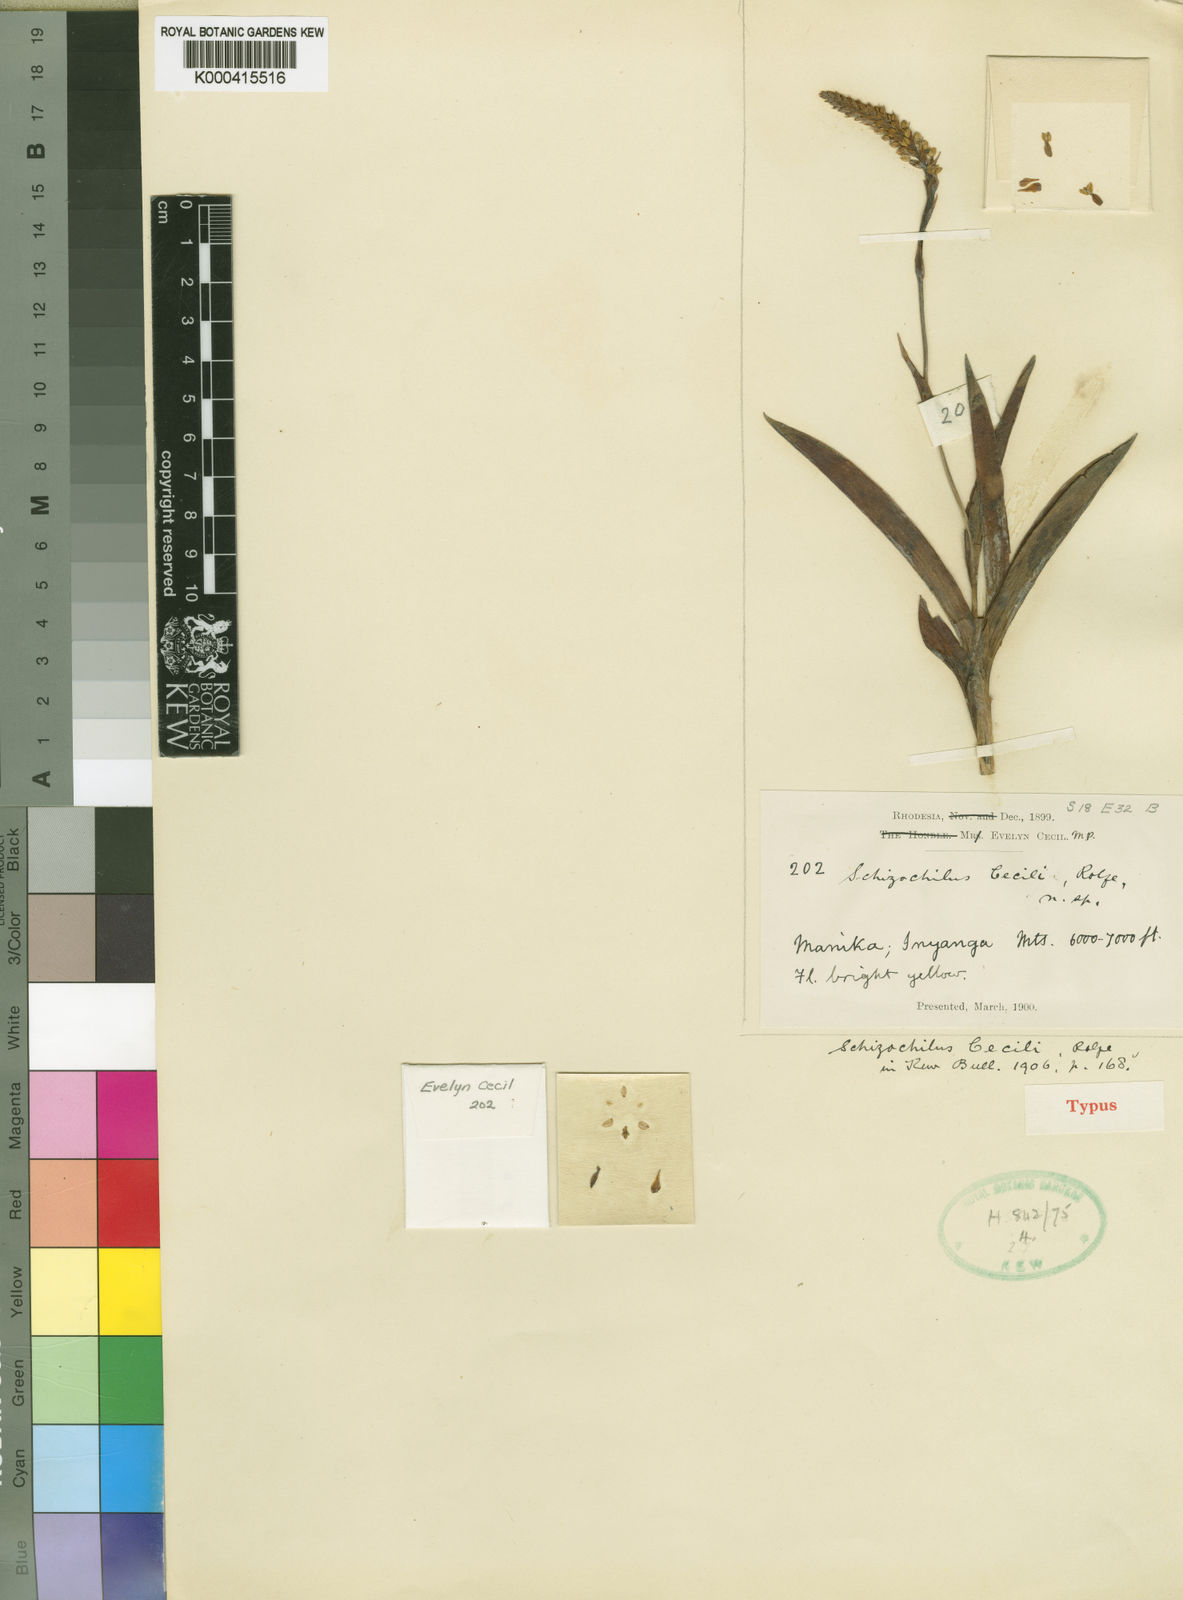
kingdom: Plantae
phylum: Tracheophyta
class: Liliopsida
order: Asparagales
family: Orchidaceae
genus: Schizochilus
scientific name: Schizochilus cecilii
